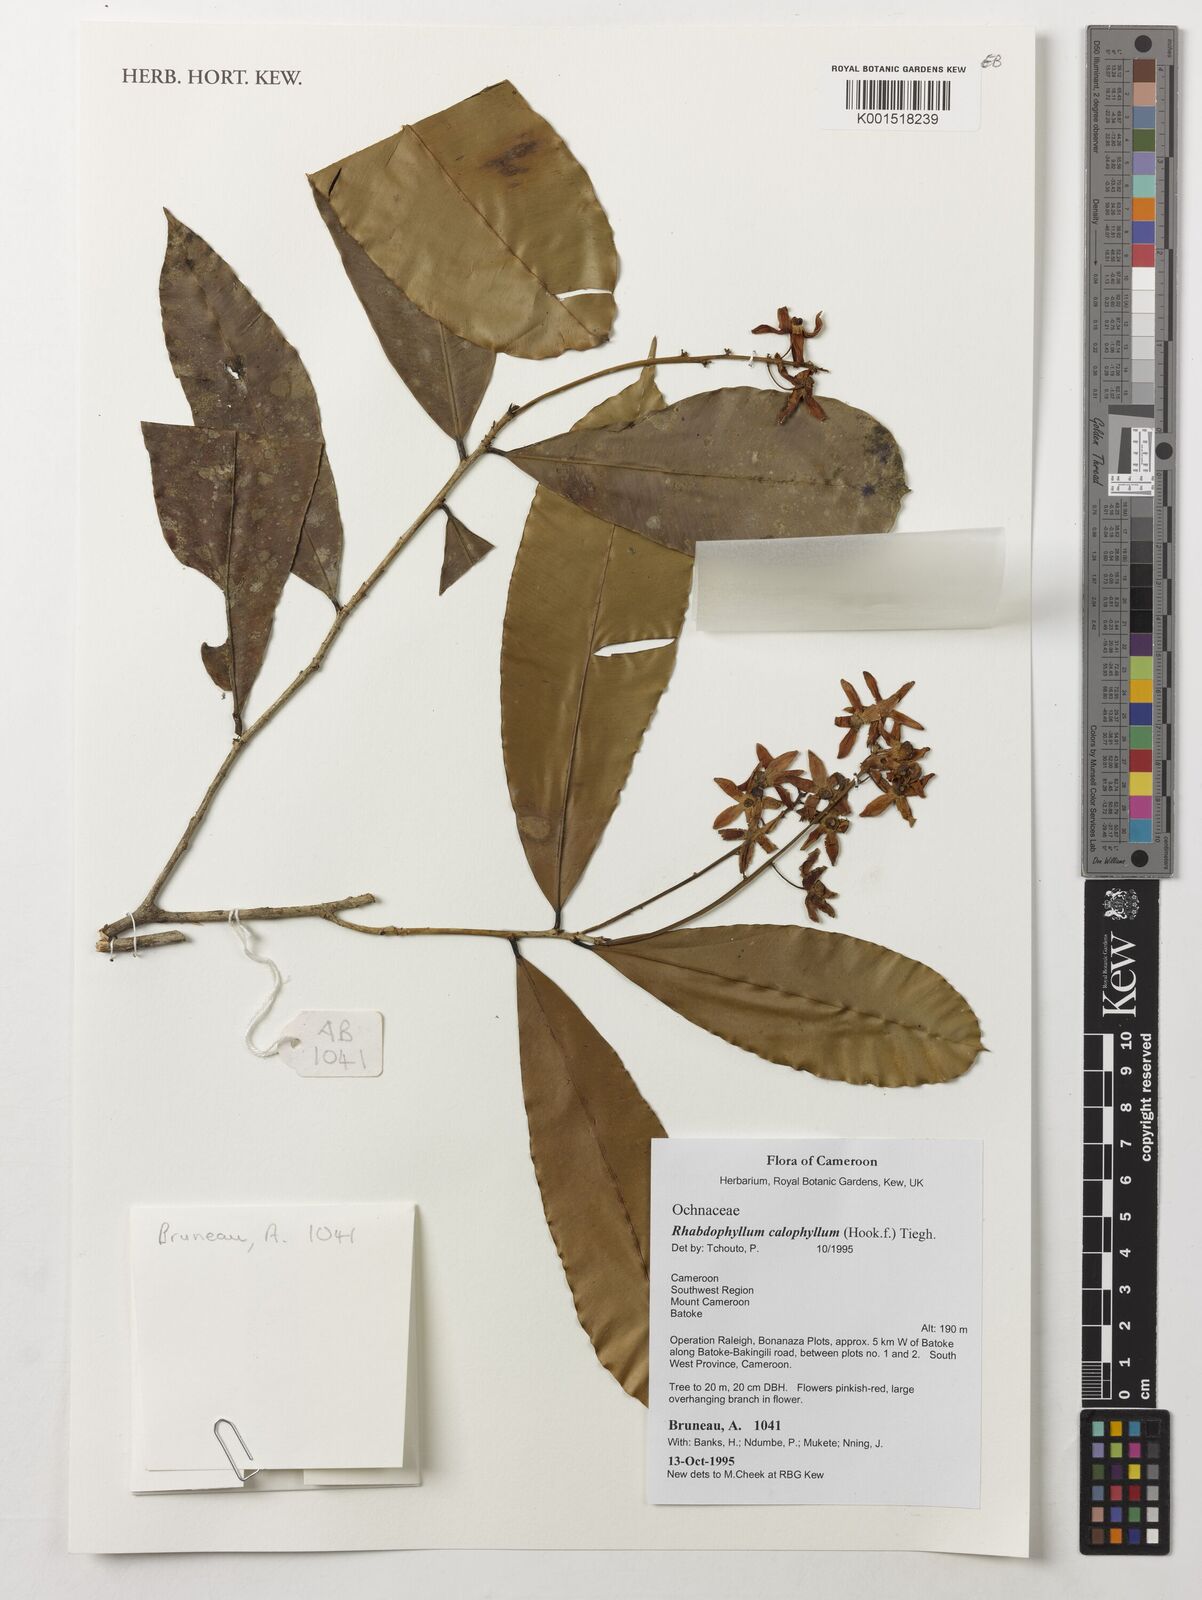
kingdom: Plantae
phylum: Tracheophyta
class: Magnoliopsida
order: Malpighiales
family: Ochnaceae
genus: Rhabdophyllum
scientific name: Rhabdophyllum calophyllum
